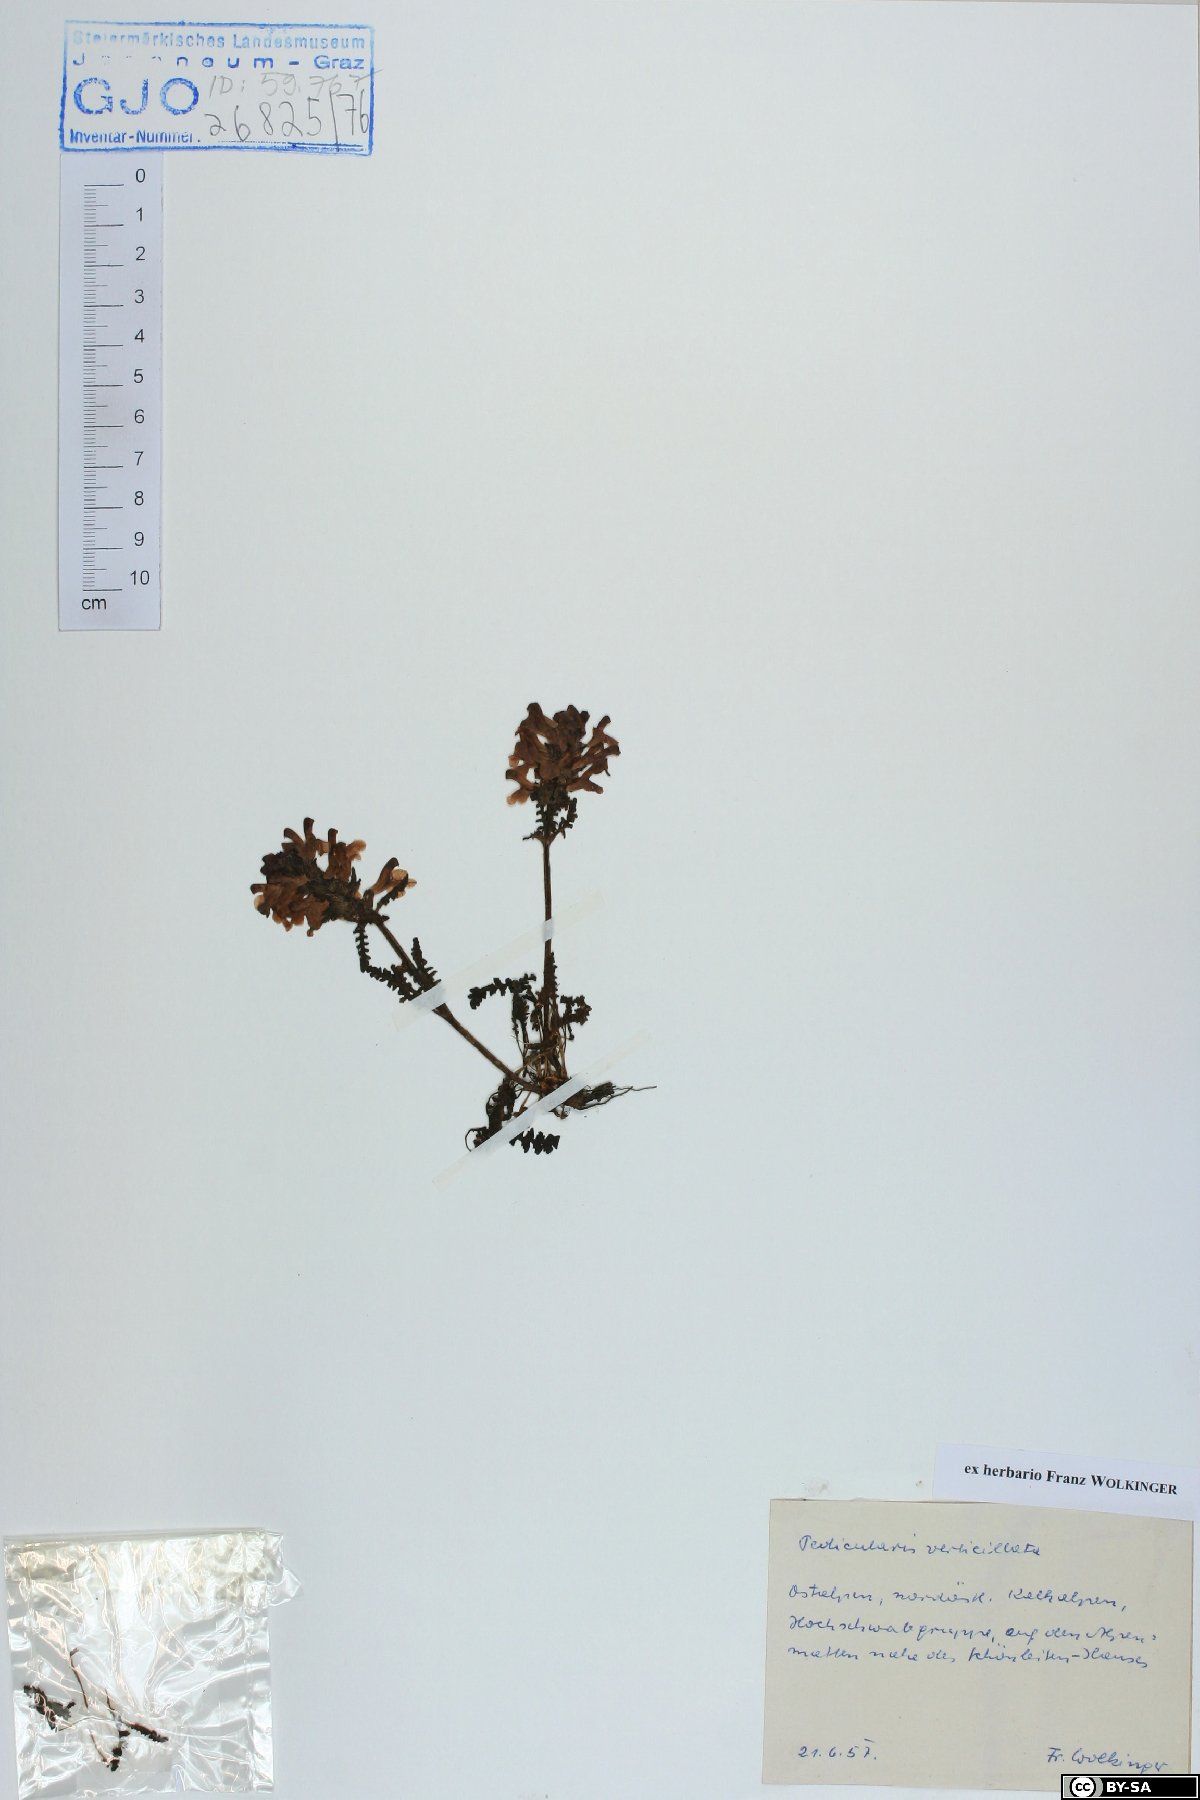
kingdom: Plantae
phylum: Tracheophyta
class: Magnoliopsida
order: Lamiales
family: Orobanchaceae
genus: Pedicularis
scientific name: Pedicularis verticillata
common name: Whorled lousewort
